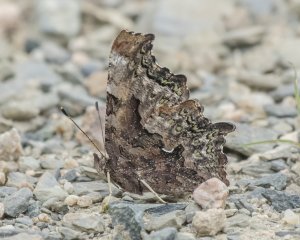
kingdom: Animalia
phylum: Arthropoda
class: Insecta
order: Lepidoptera
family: Nymphalidae
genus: Polygonia
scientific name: Polygonia faunus
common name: Green Comma
